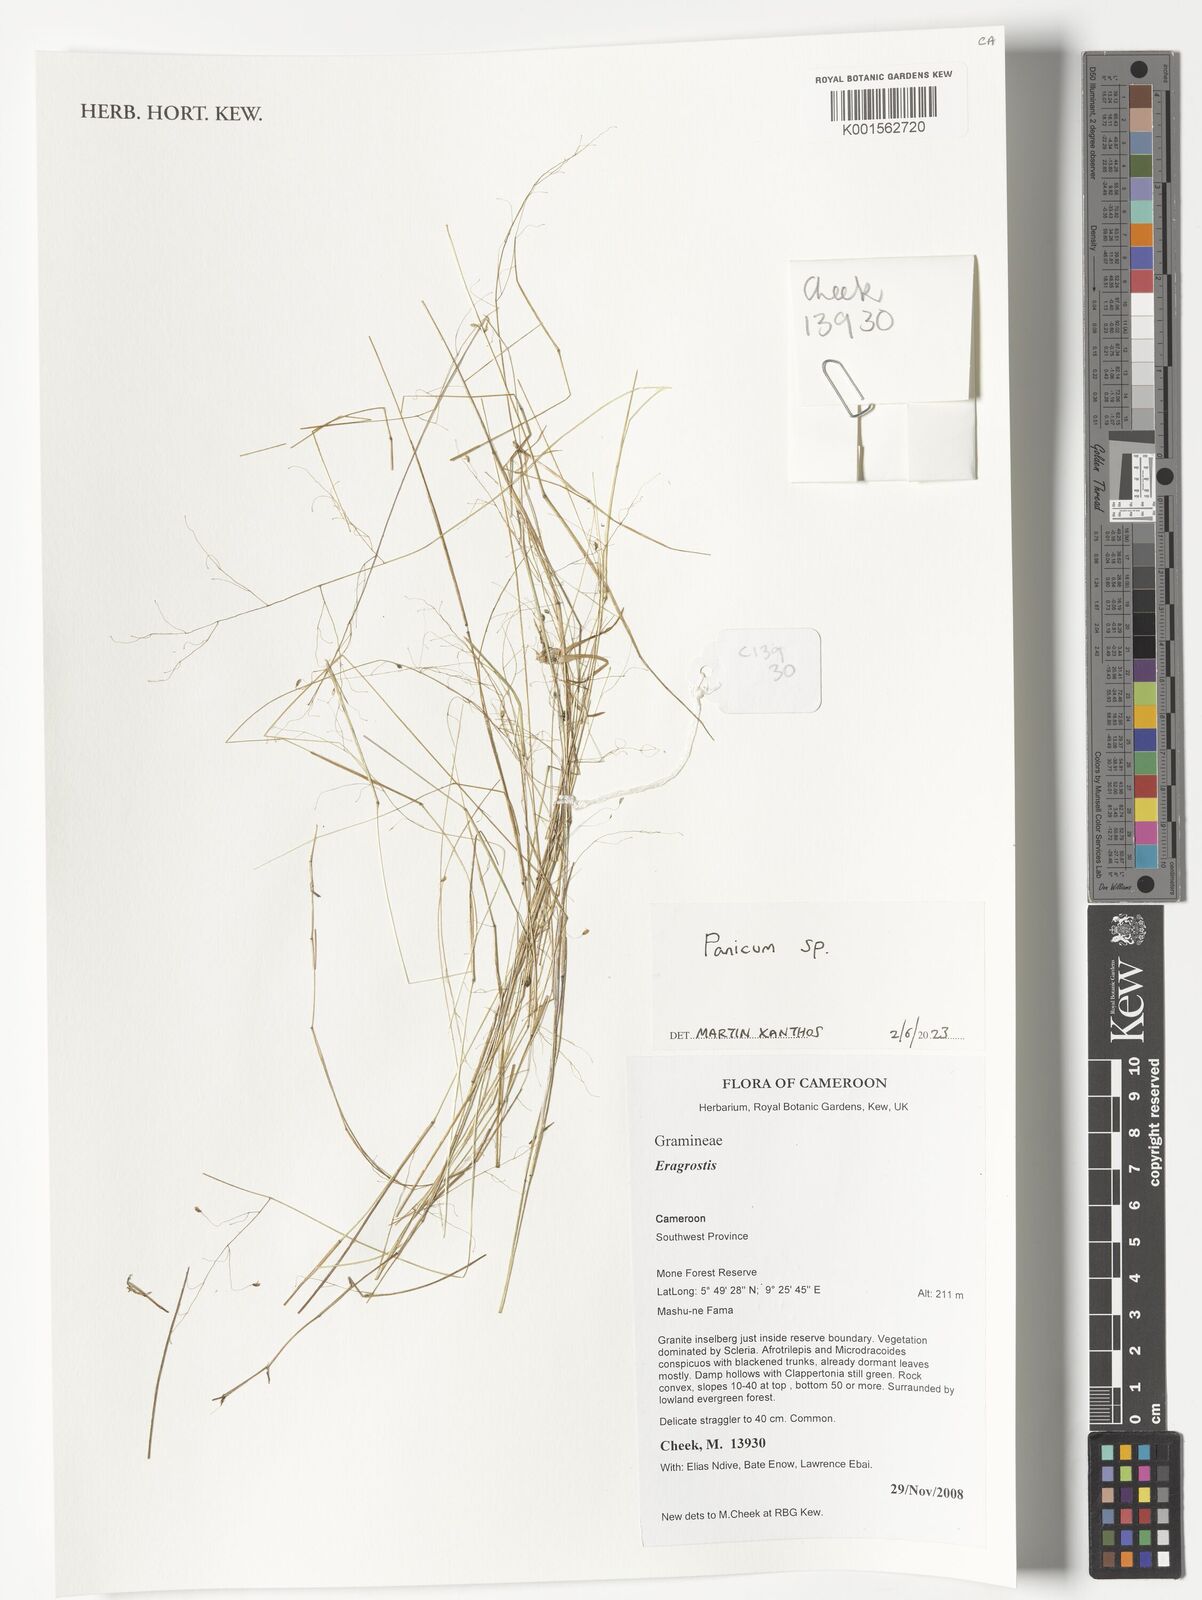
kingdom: Plantae
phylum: Tracheophyta
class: Liliopsida
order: Poales
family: Poaceae
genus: Panicum
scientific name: Panicum
